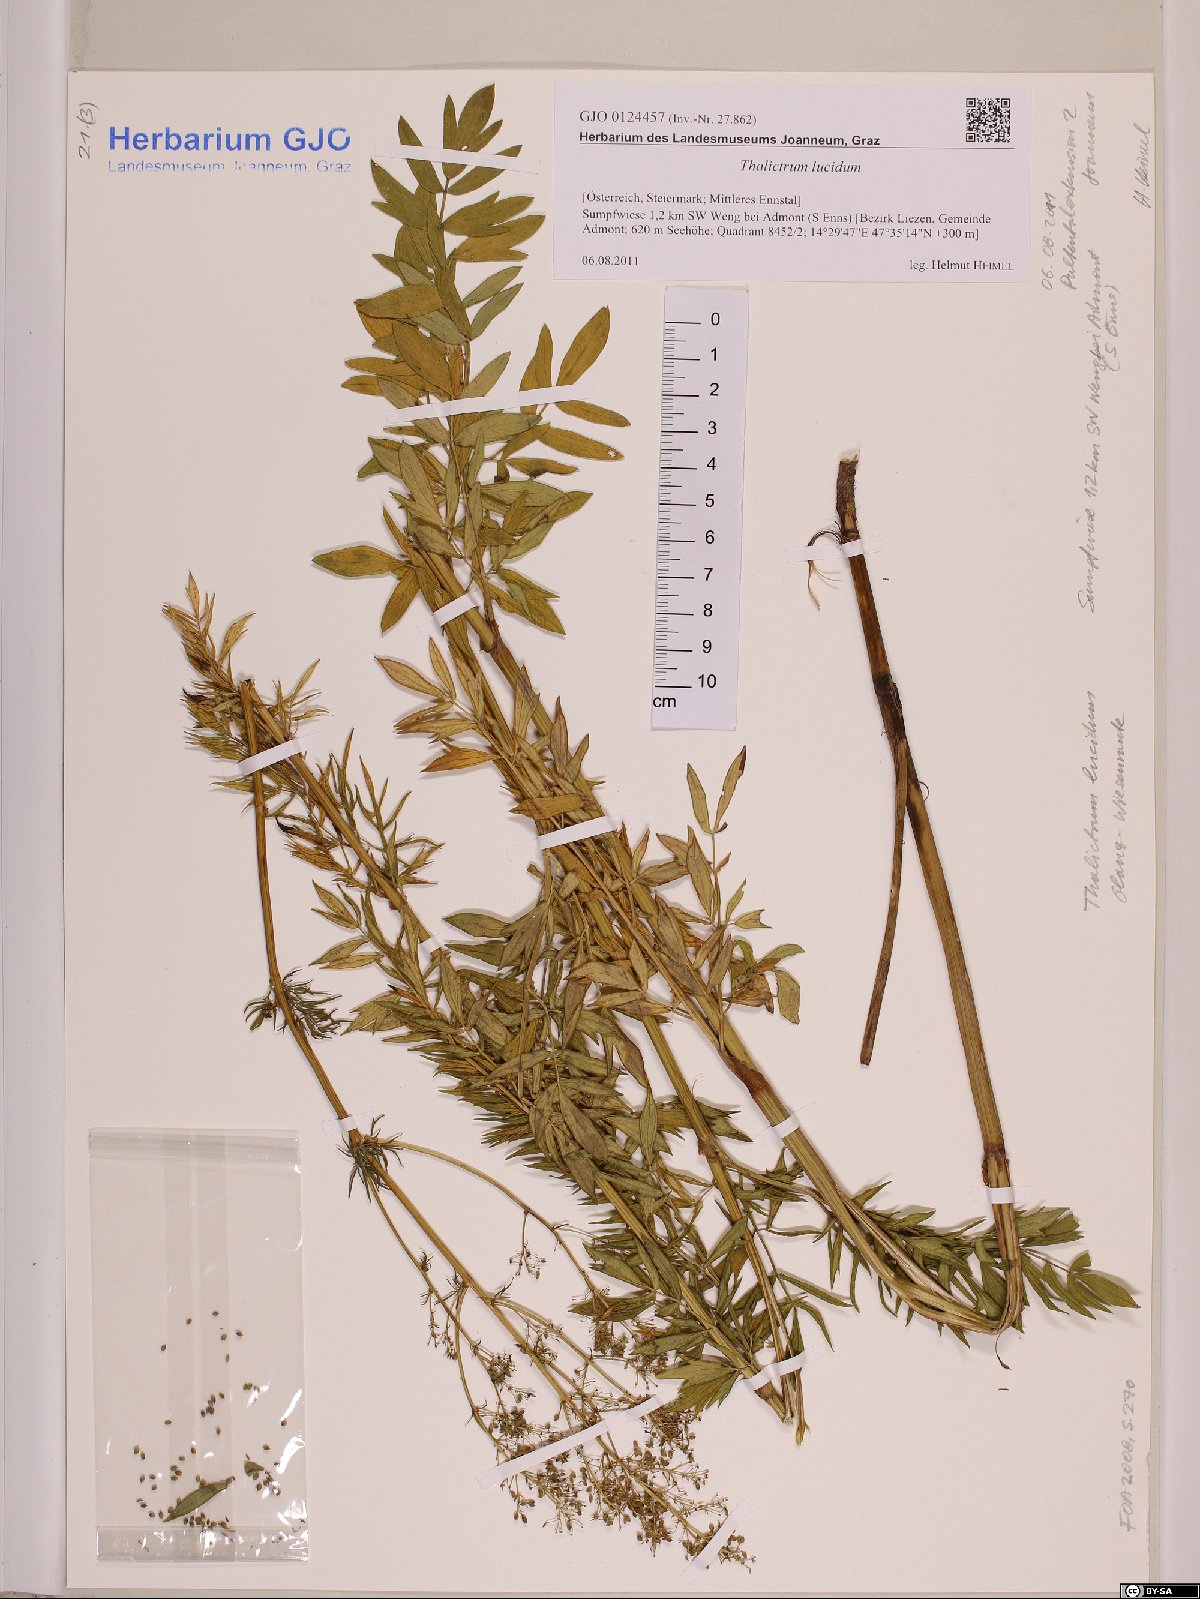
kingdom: Plantae
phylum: Tracheophyta
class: Magnoliopsida
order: Ranunculales
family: Ranunculaceae
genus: Thalictrum
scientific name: Thalictrum lucidum
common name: Shining meadow-rue
